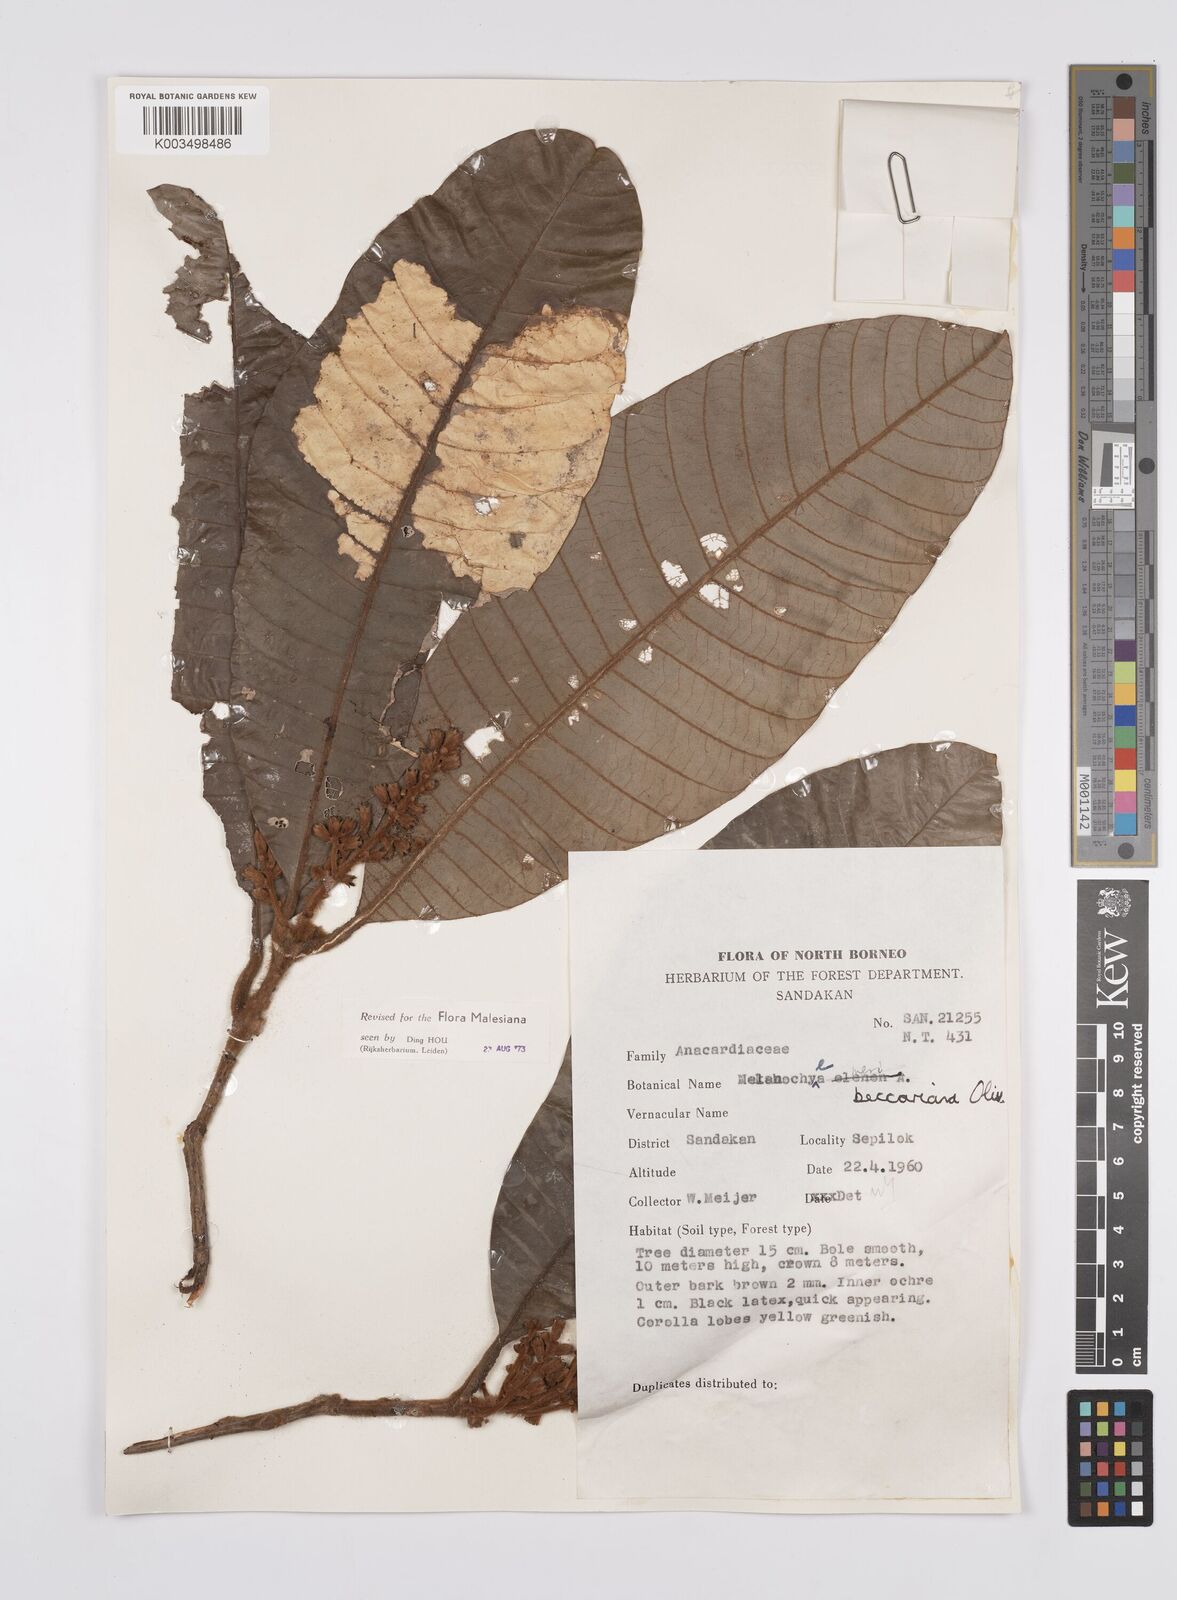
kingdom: Plantae
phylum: Tracheophyta
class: Magnoliopsida
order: Sapindales
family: Anacardiaceae
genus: Melanochyla
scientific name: Melanochyla beccariana
